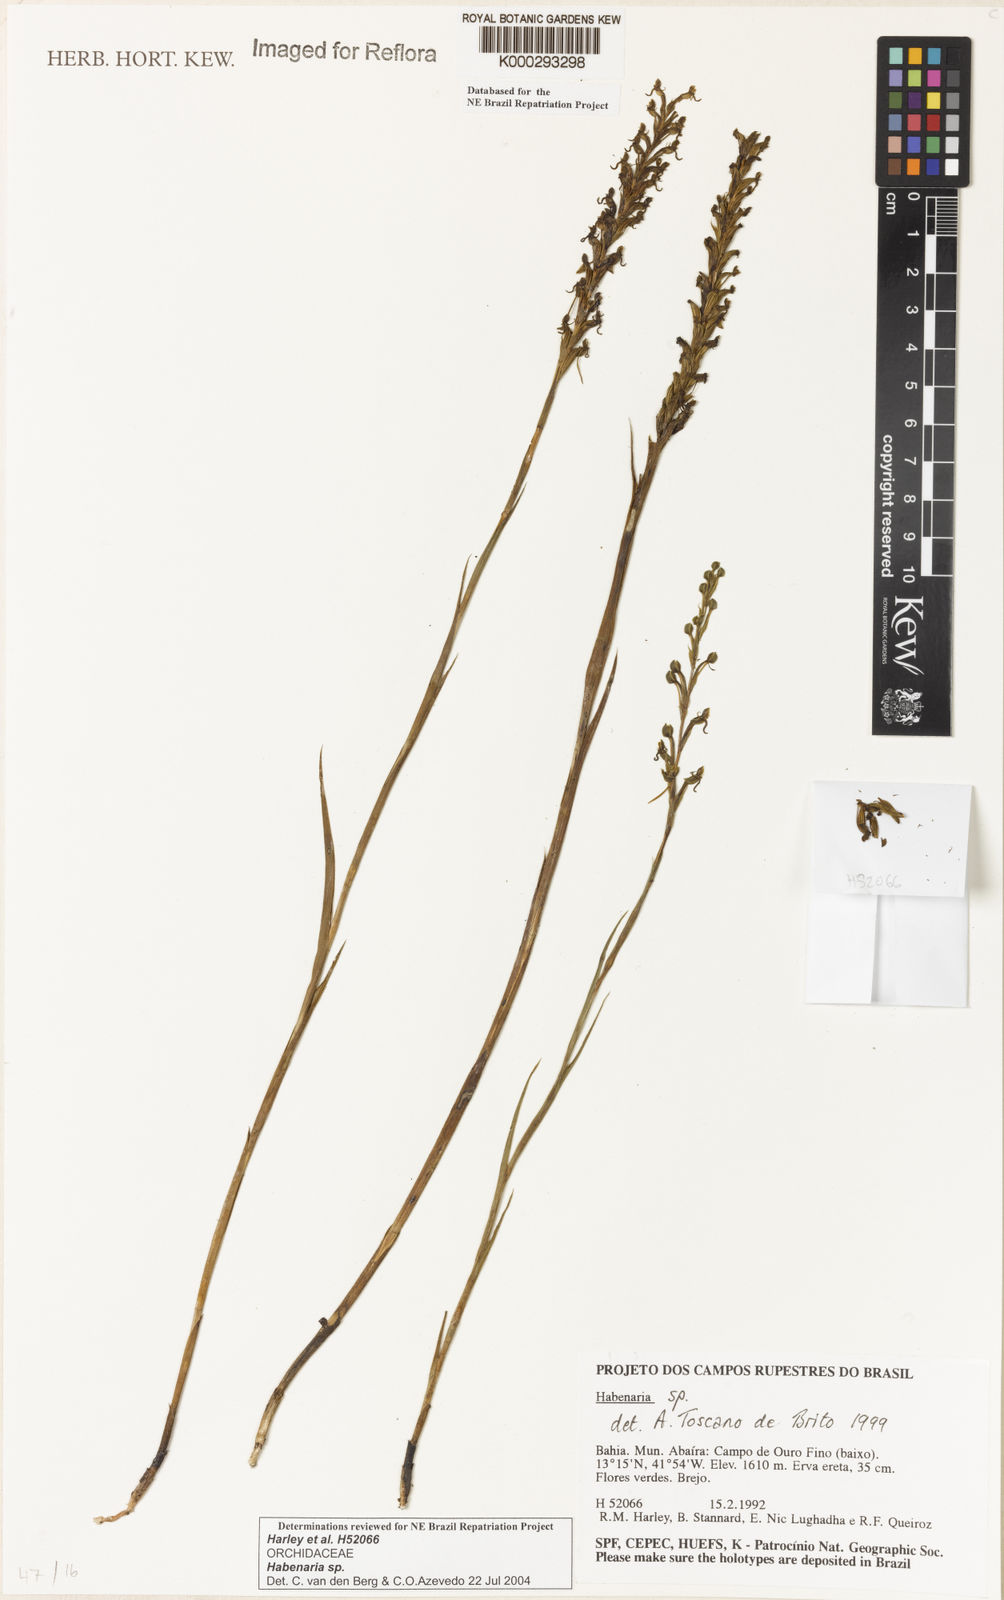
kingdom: Plantae
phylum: Tracheophyta
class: Liliopsida
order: Asparagales
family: Orchidaceae
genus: Habenaria
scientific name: Habenaria
